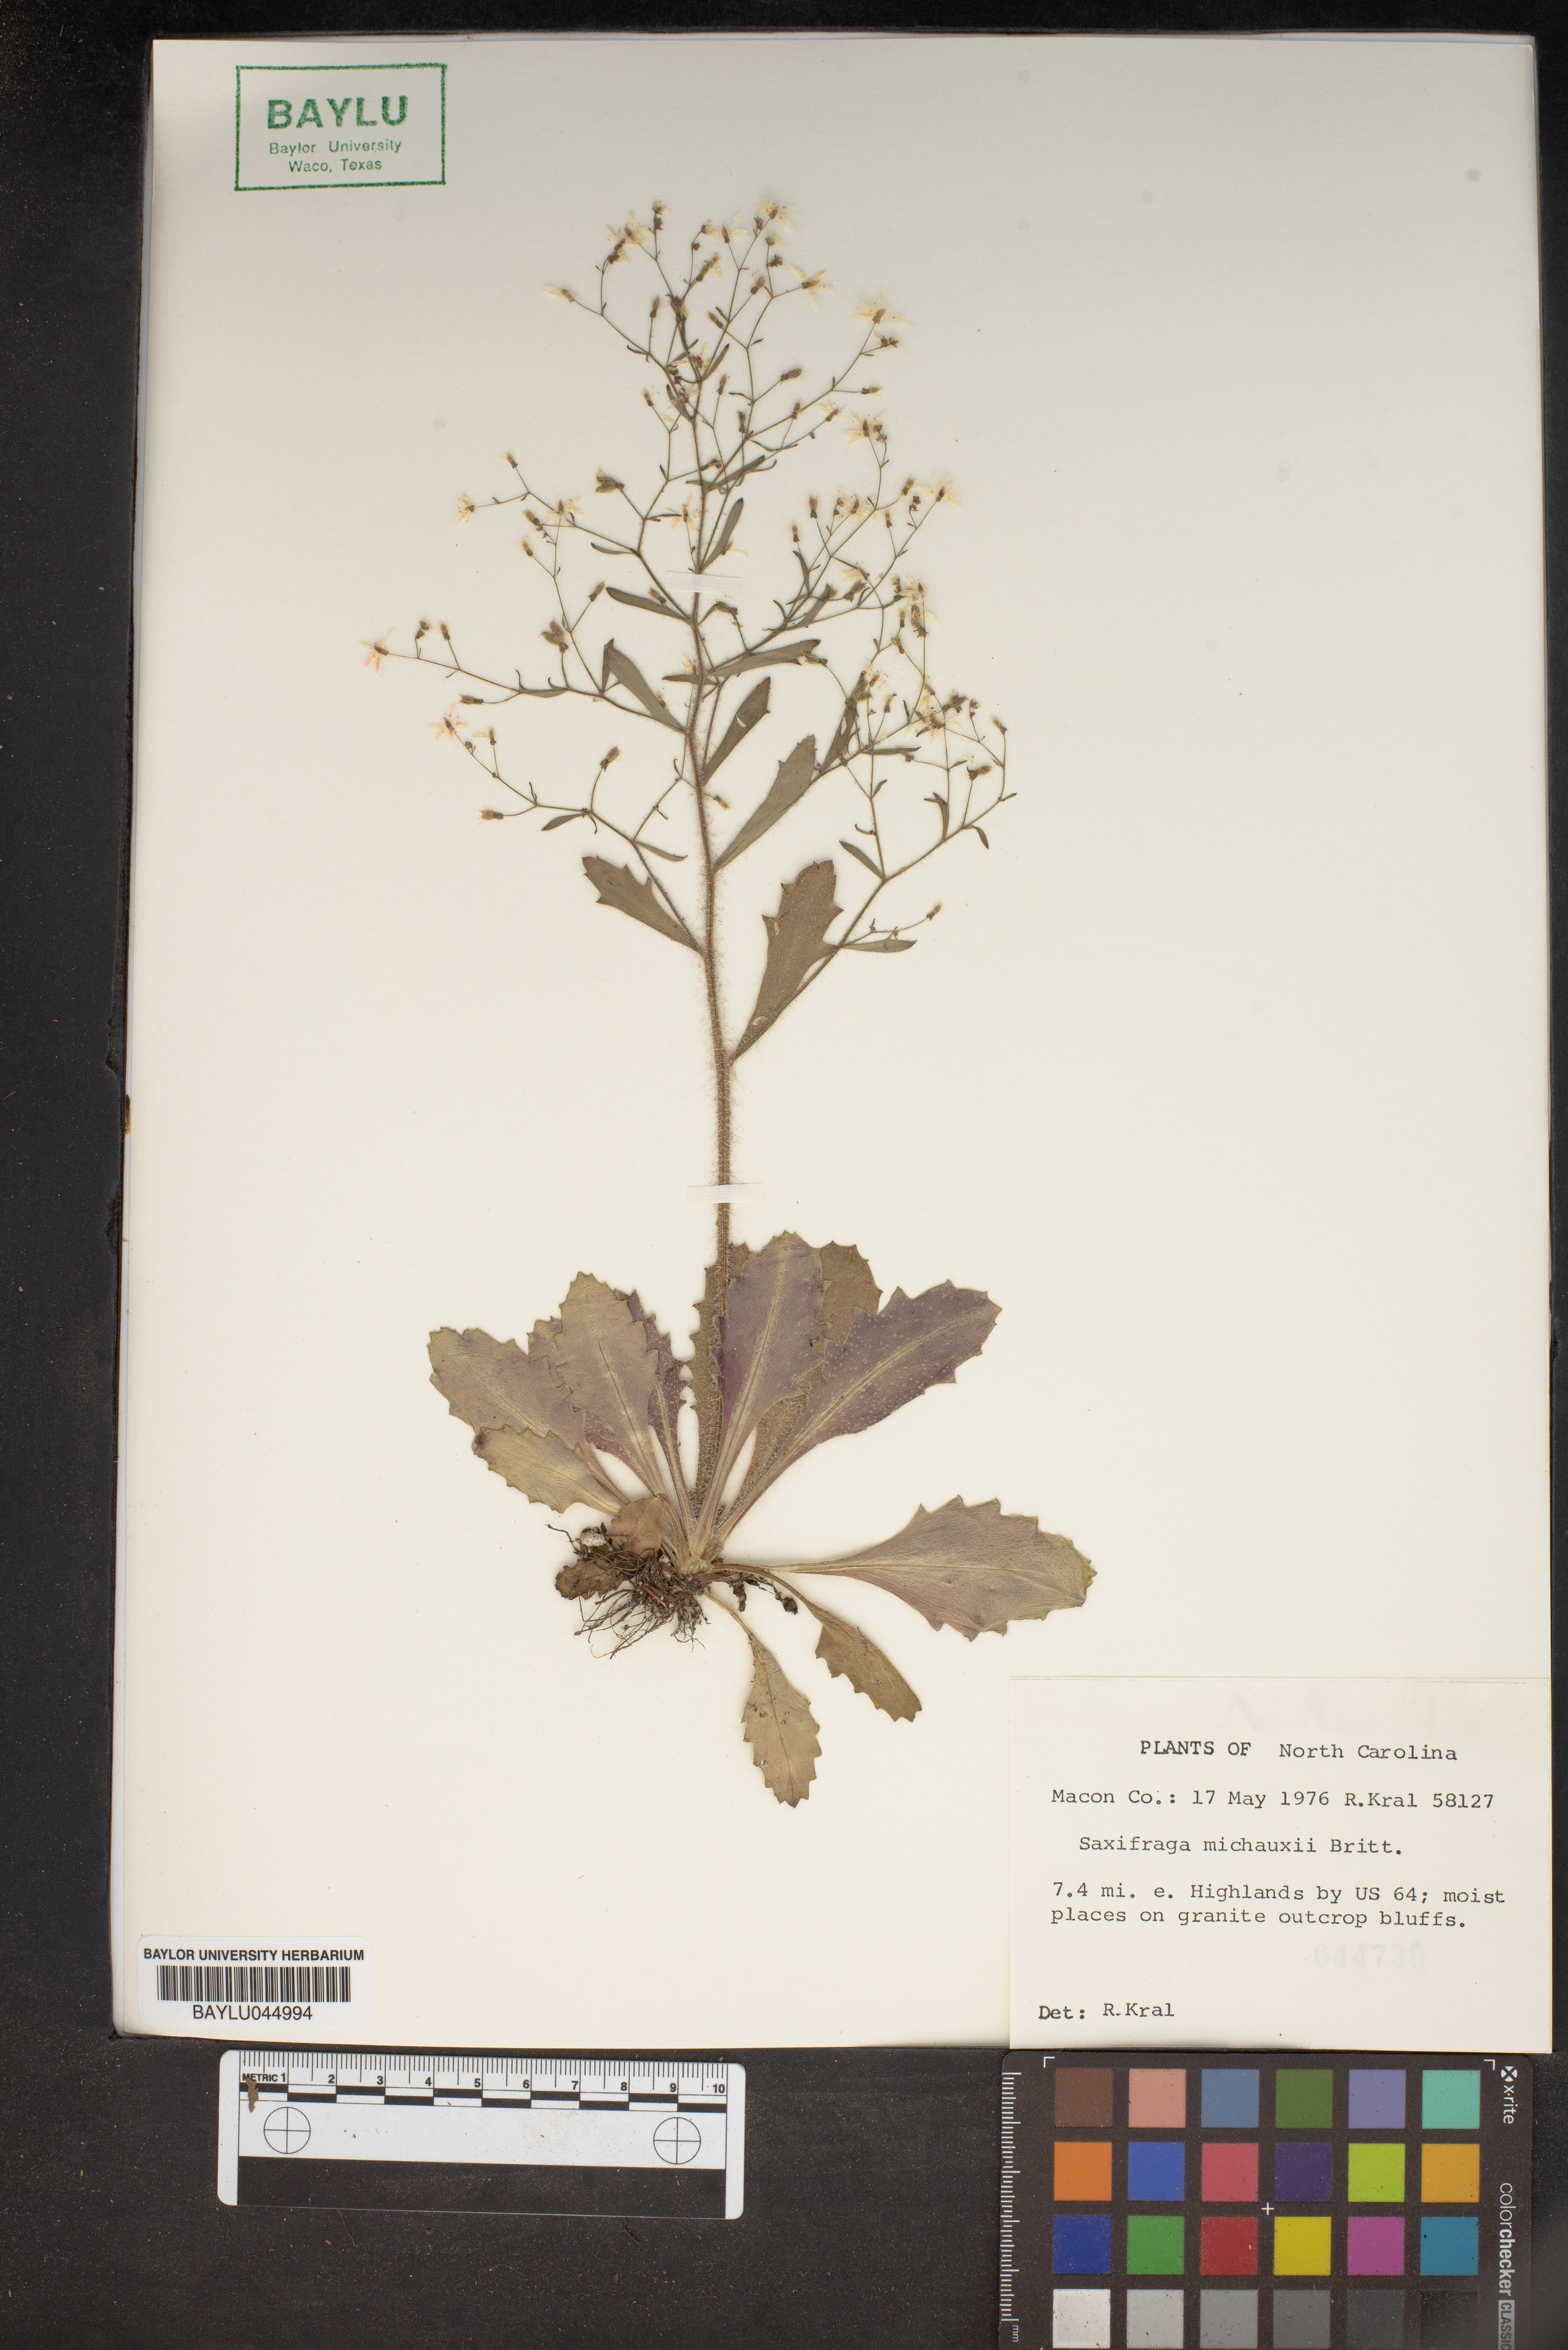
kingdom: Plantae
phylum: Tracheophyta
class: Magnoliopsida
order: Saxifragales
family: Saxifragaceae
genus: Micranthes
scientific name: Micranthes petiolaris
